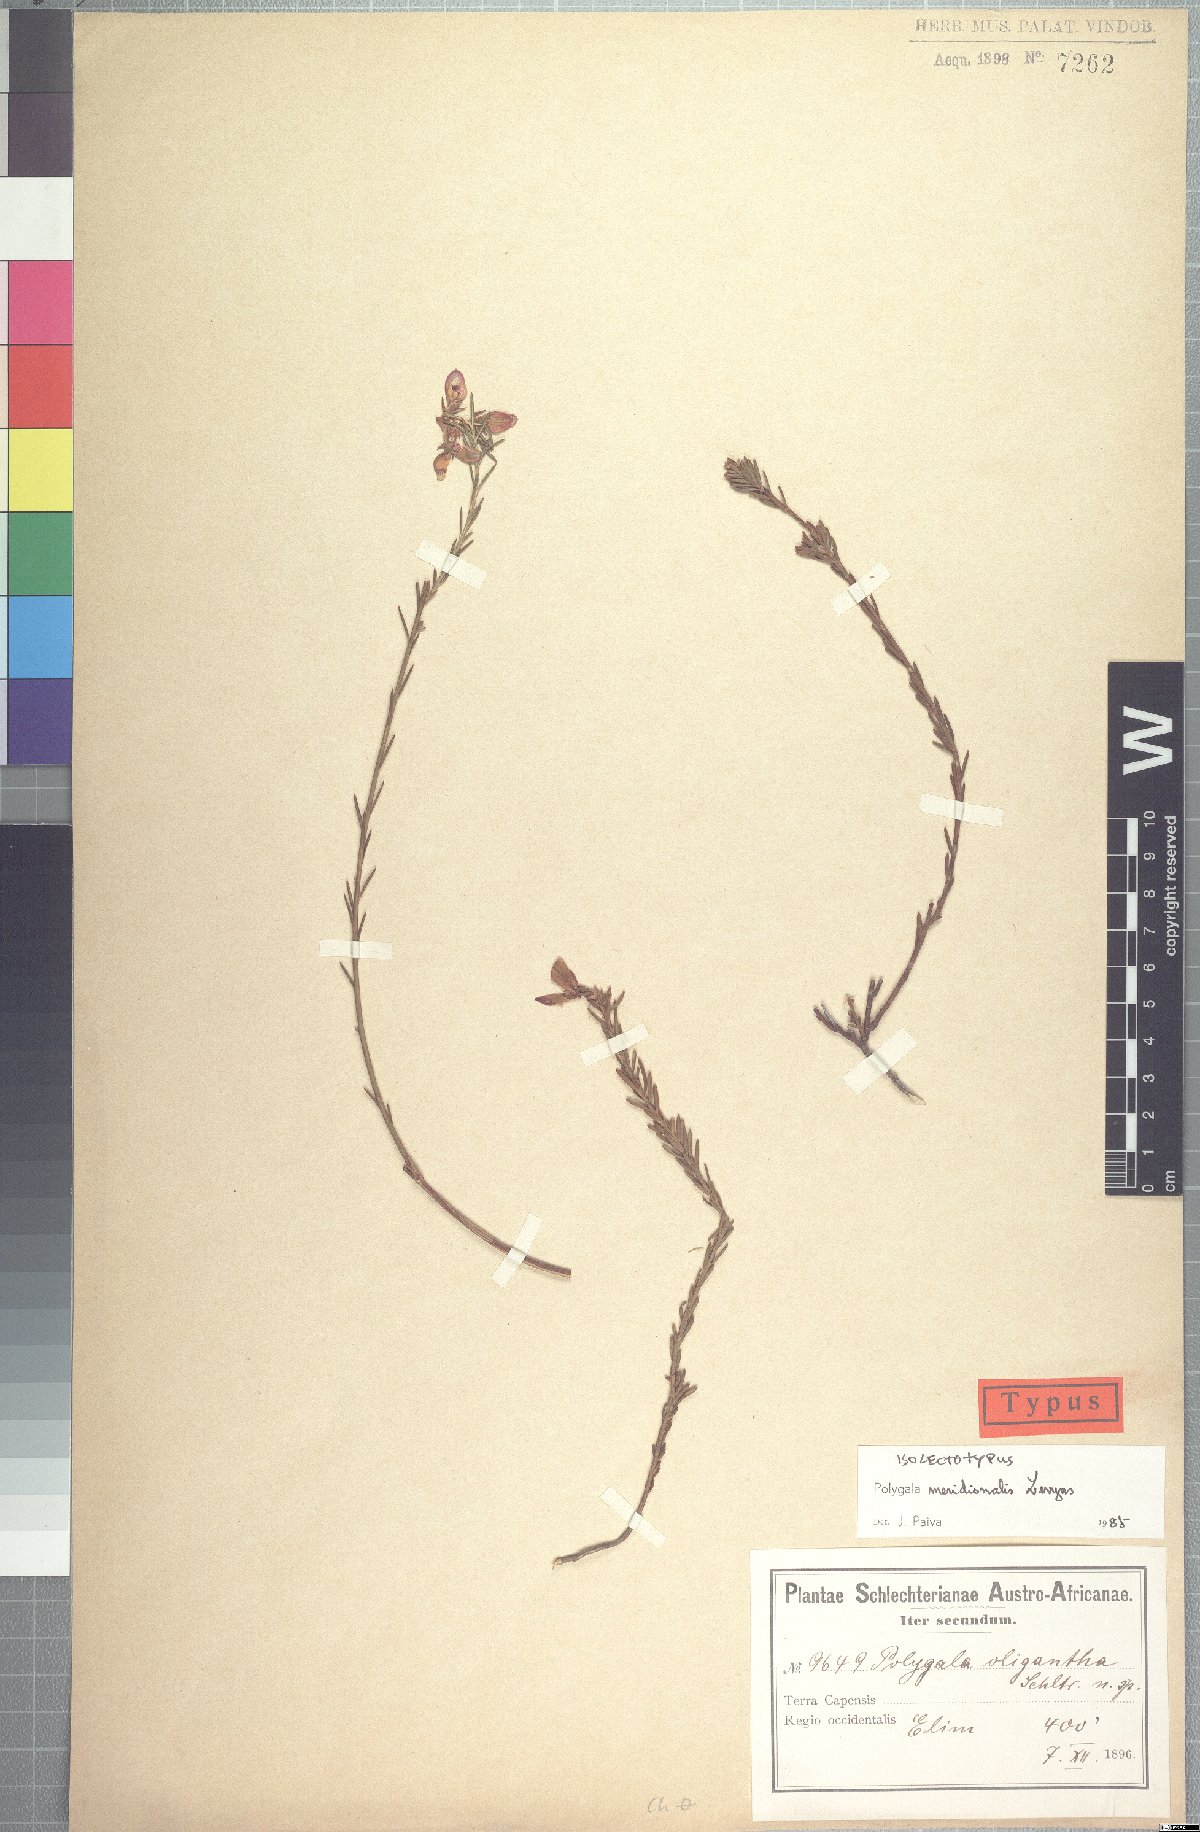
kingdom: Plantae
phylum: Tracheophyta
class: Magnoliopsida
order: Fabales
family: Polygalaceae
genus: Polygala
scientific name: Polygala meridionalis
